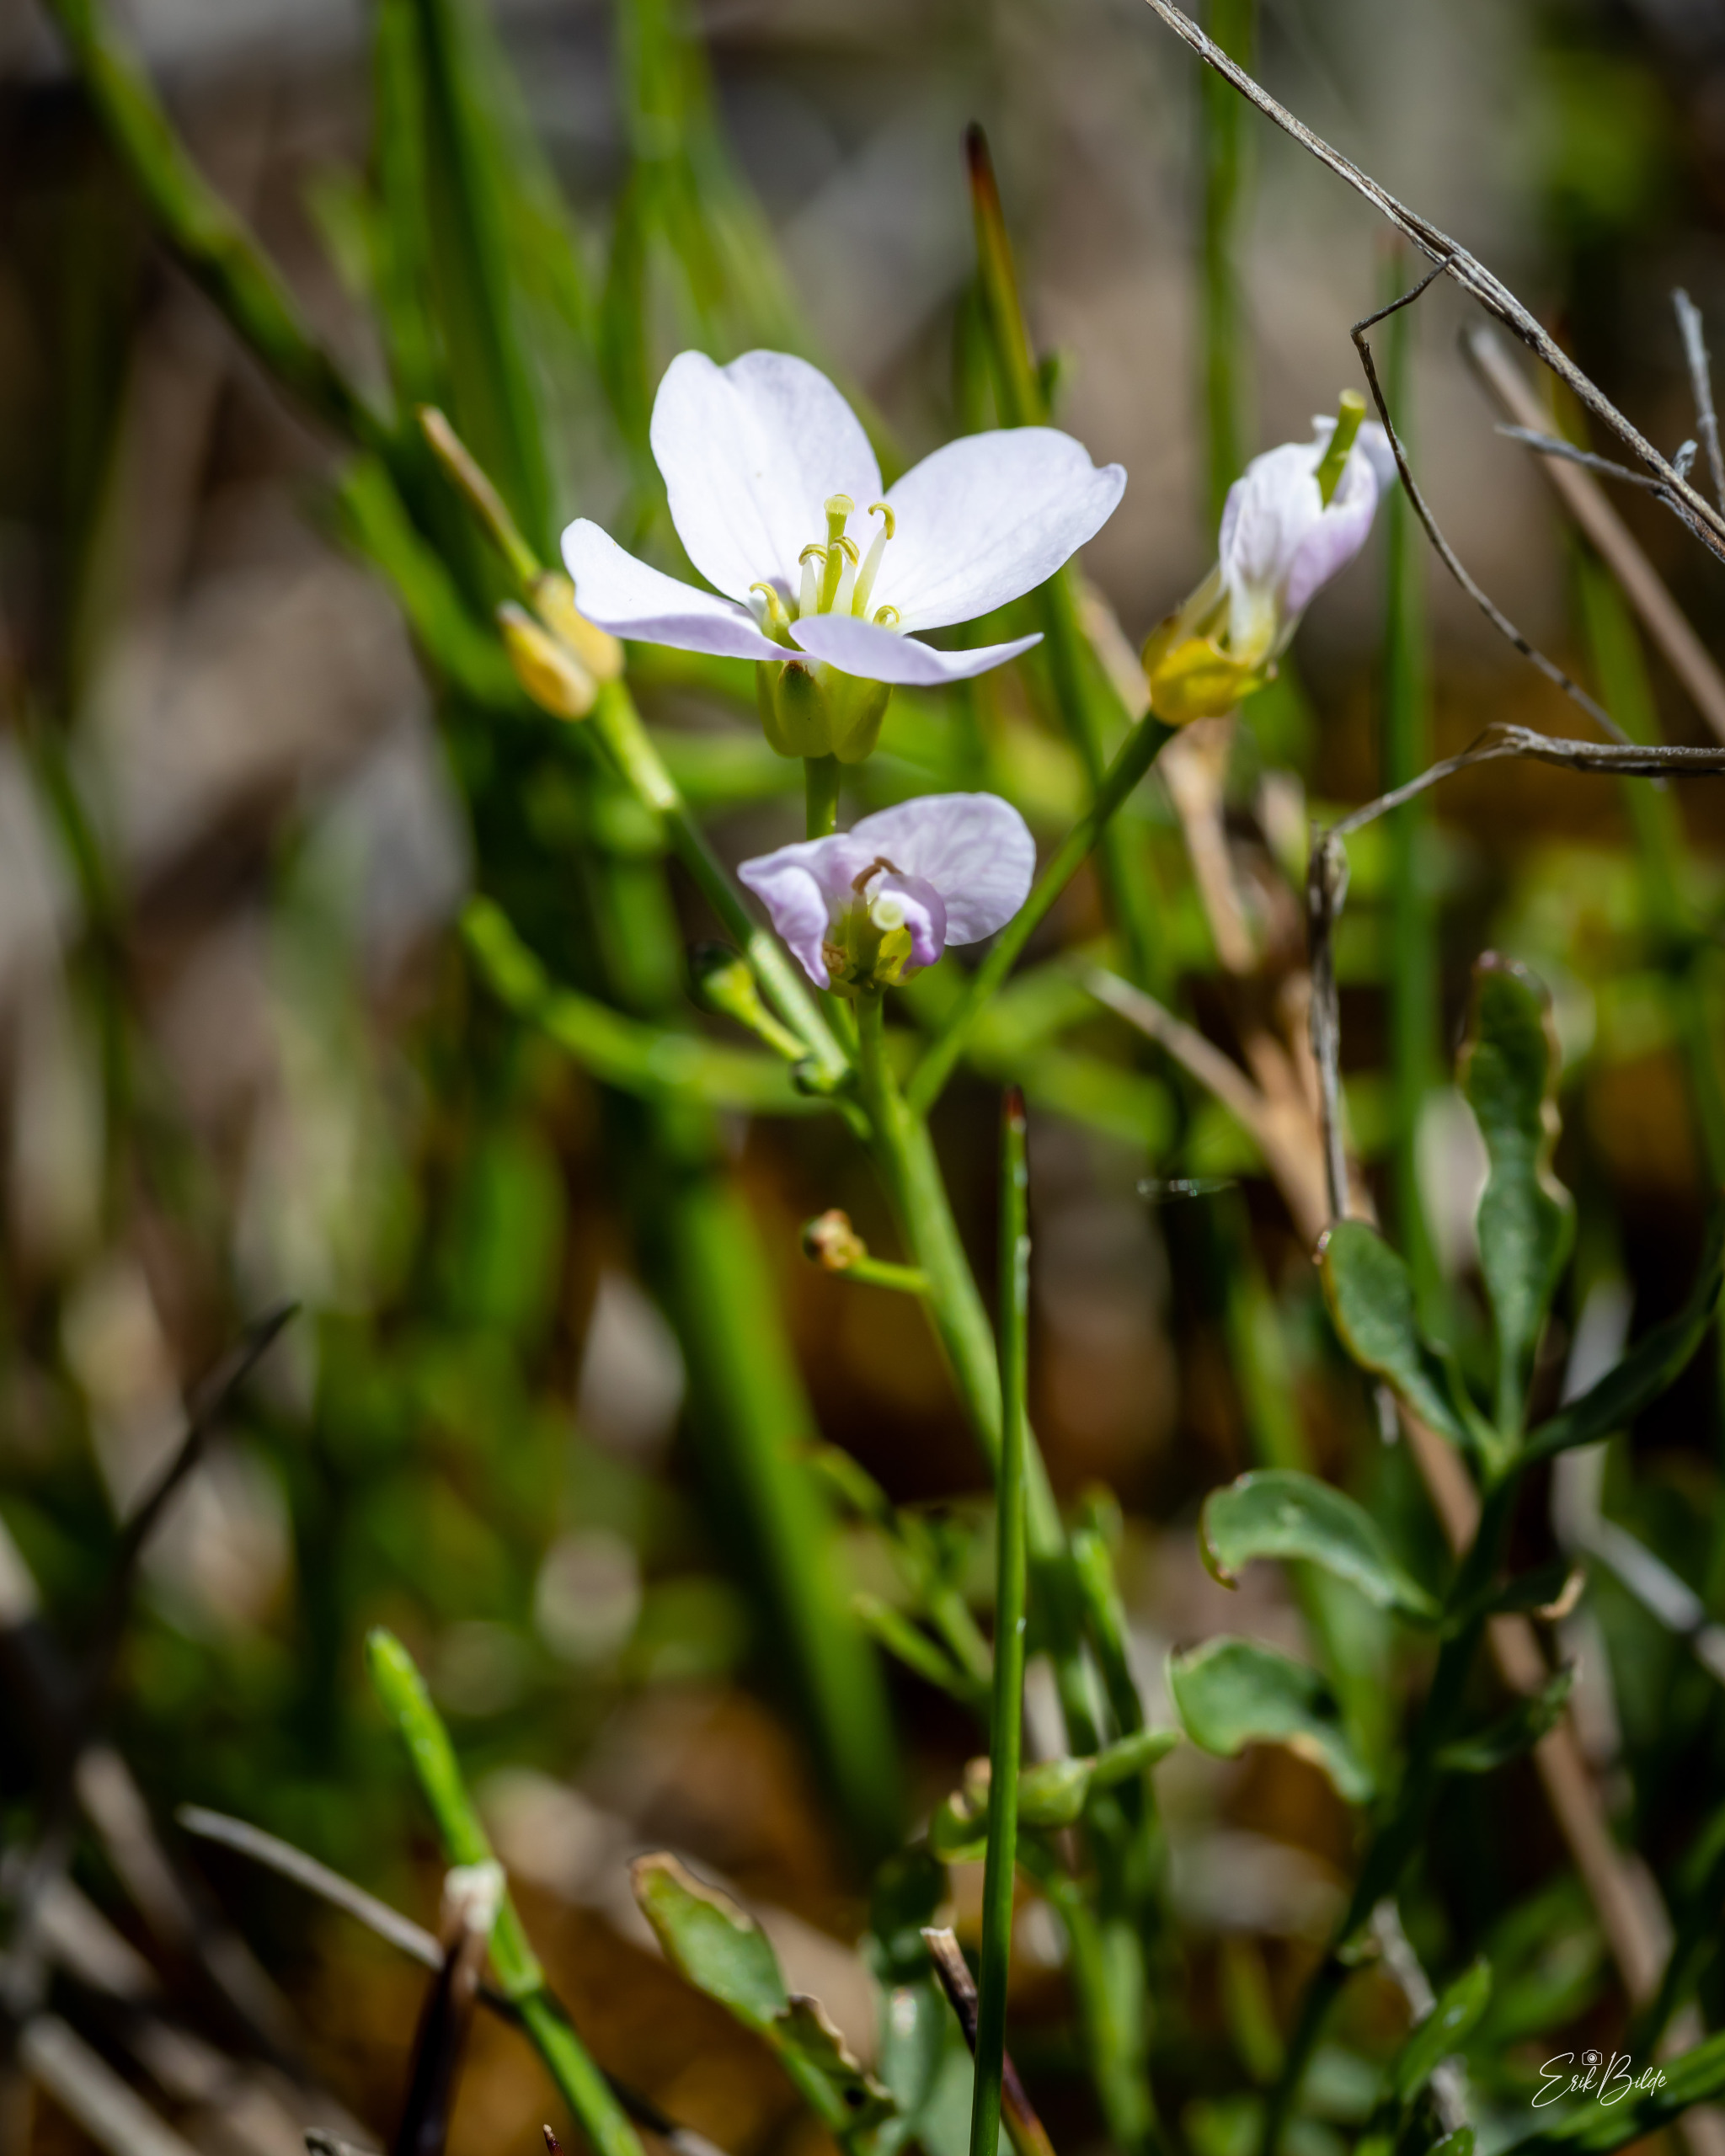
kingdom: Plantae
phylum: Tracheophyta
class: Magnoliopsida
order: Brassicales
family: Brassicaceae
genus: Cardamine
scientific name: Cardamine pratensis
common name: Engkarse
